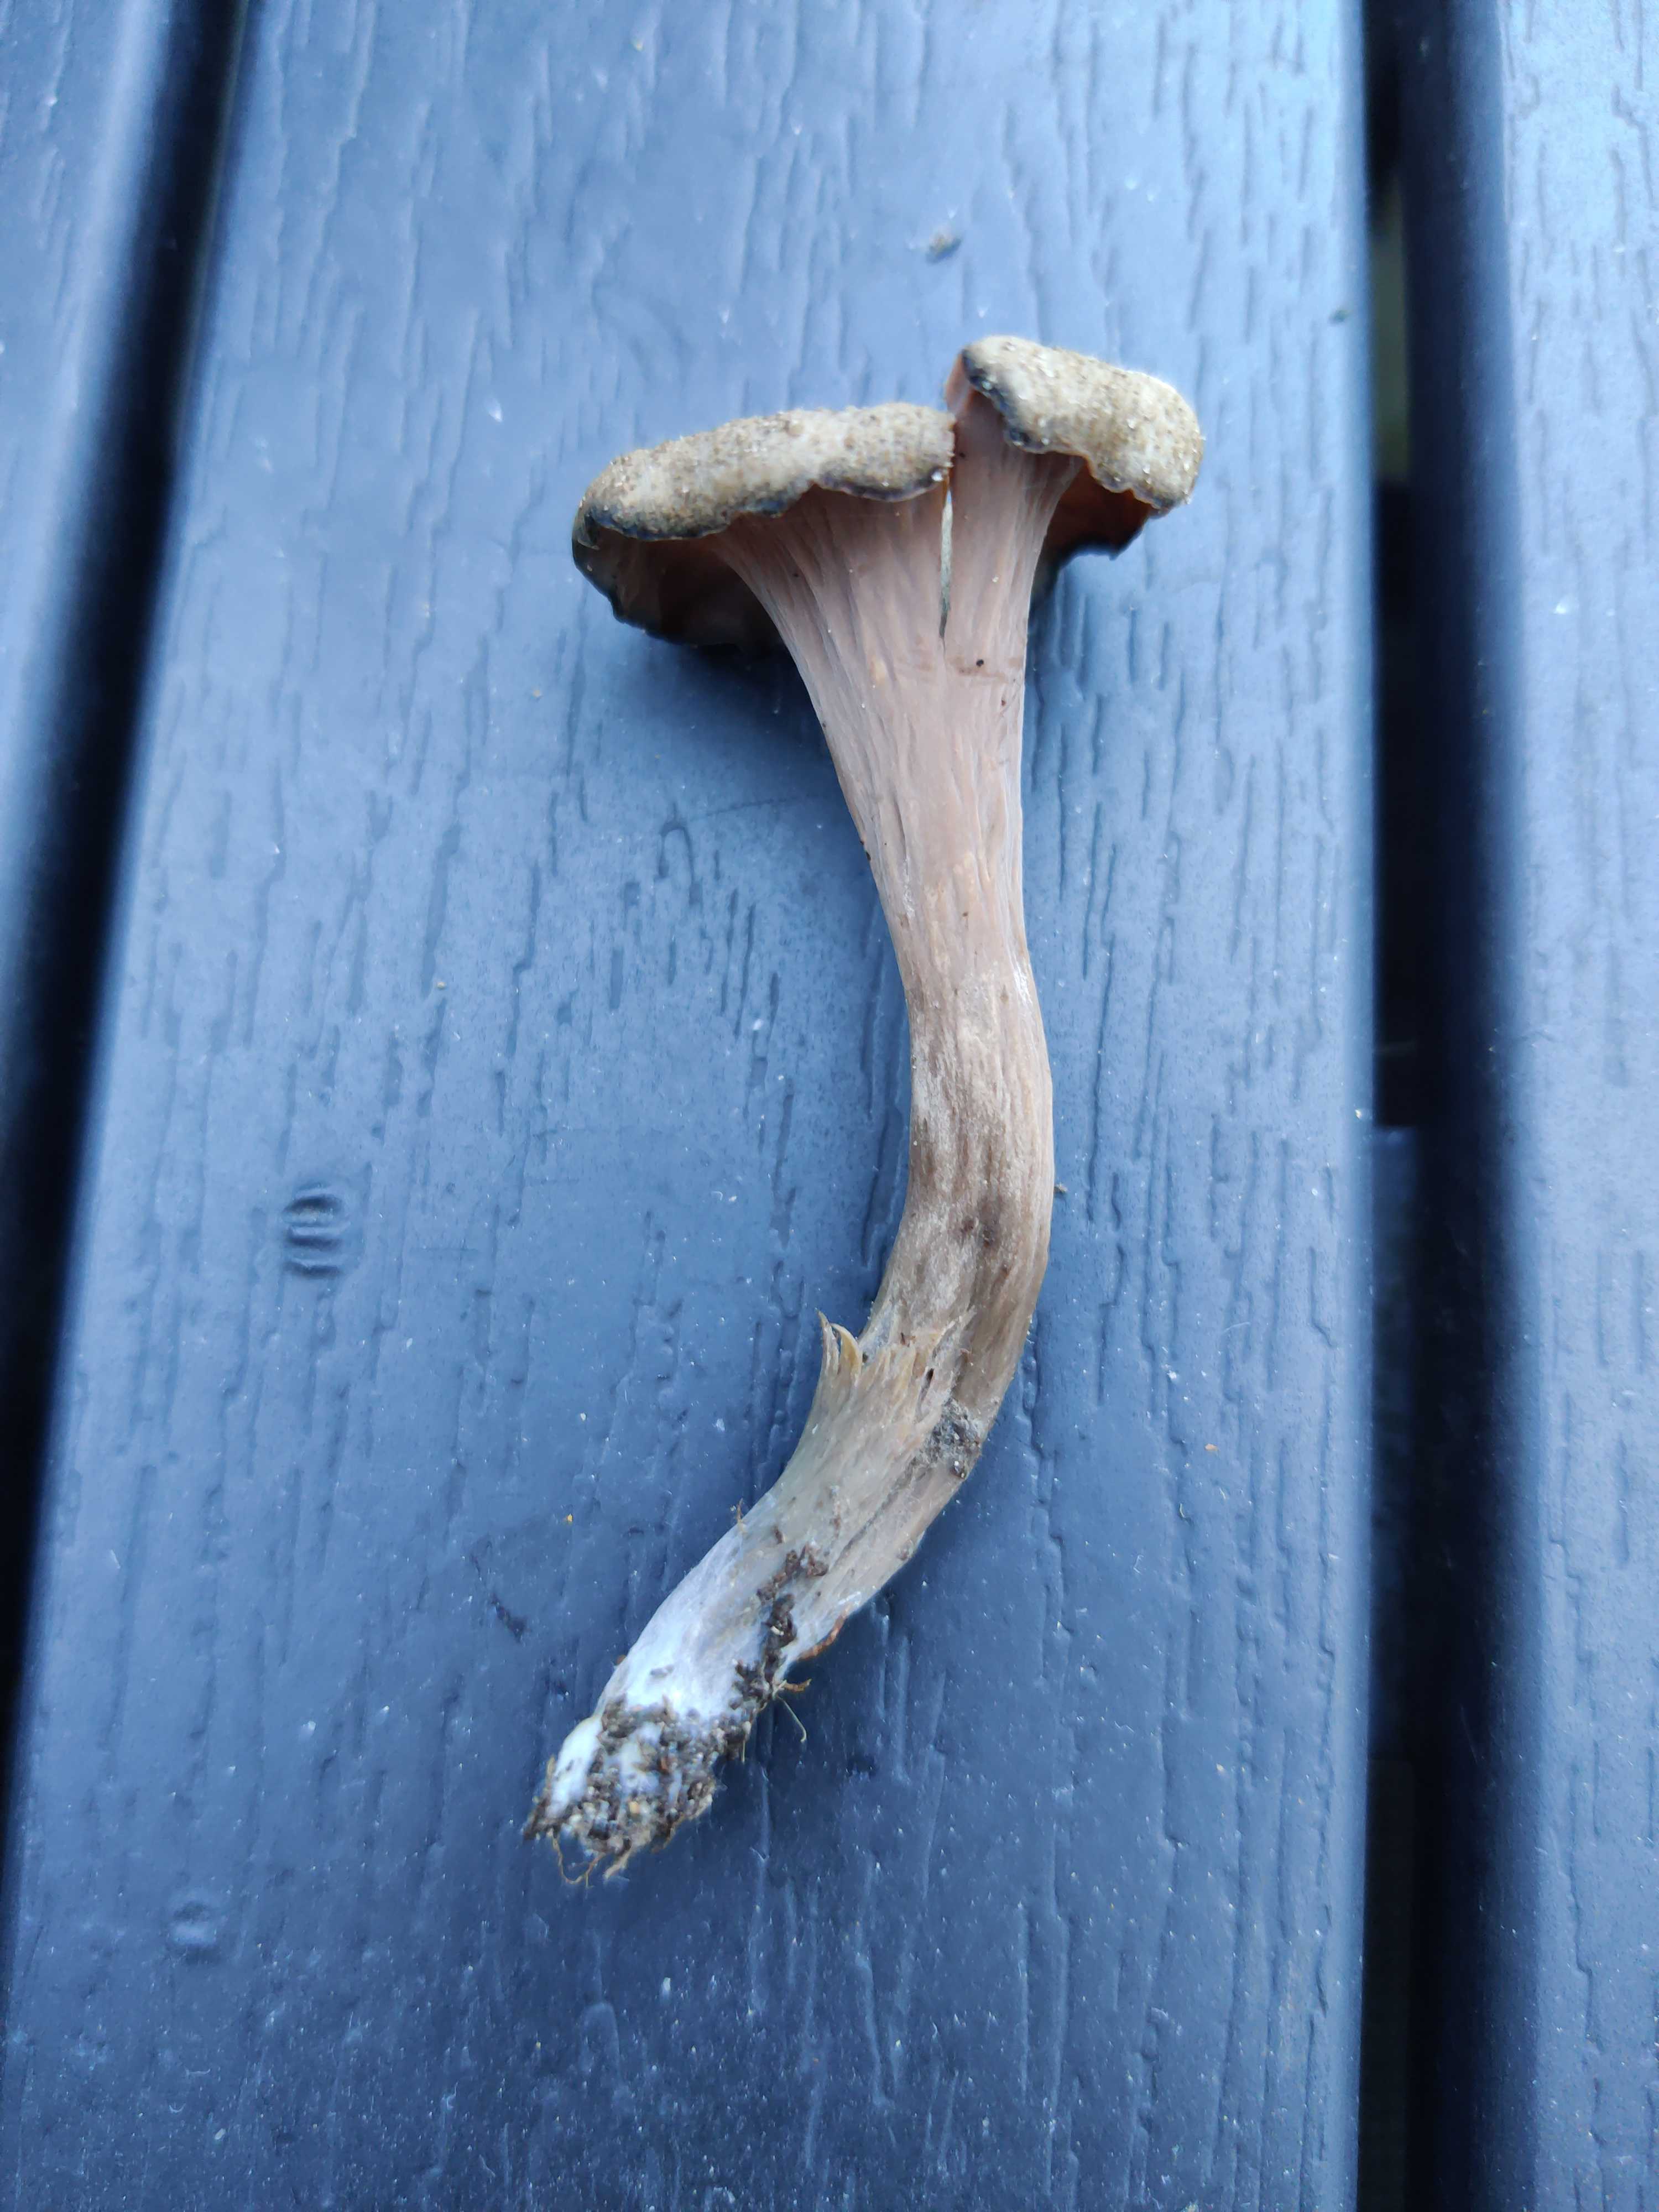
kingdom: Fungi
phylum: Basidiomycota
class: Agaricomycetes
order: Cantharellales
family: Hydnaceae
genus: Craterellus
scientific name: Craterellus cornucopioides
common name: trompetsvamp
